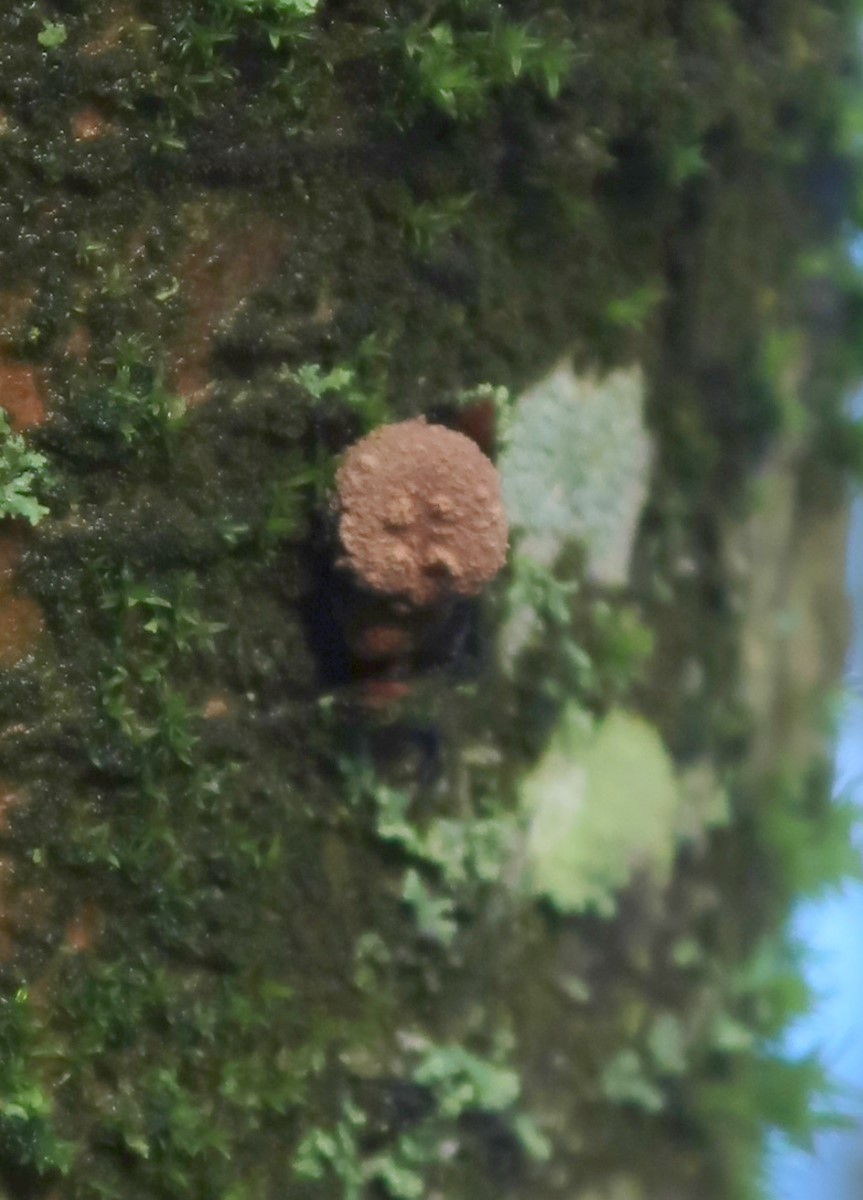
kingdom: Fungi
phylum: Ascomycota
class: Leotiomycetes
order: Helotiales
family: Cenangiaceae
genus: Encoelia
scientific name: Encoelia furfuracea
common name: hassel-læderskive
